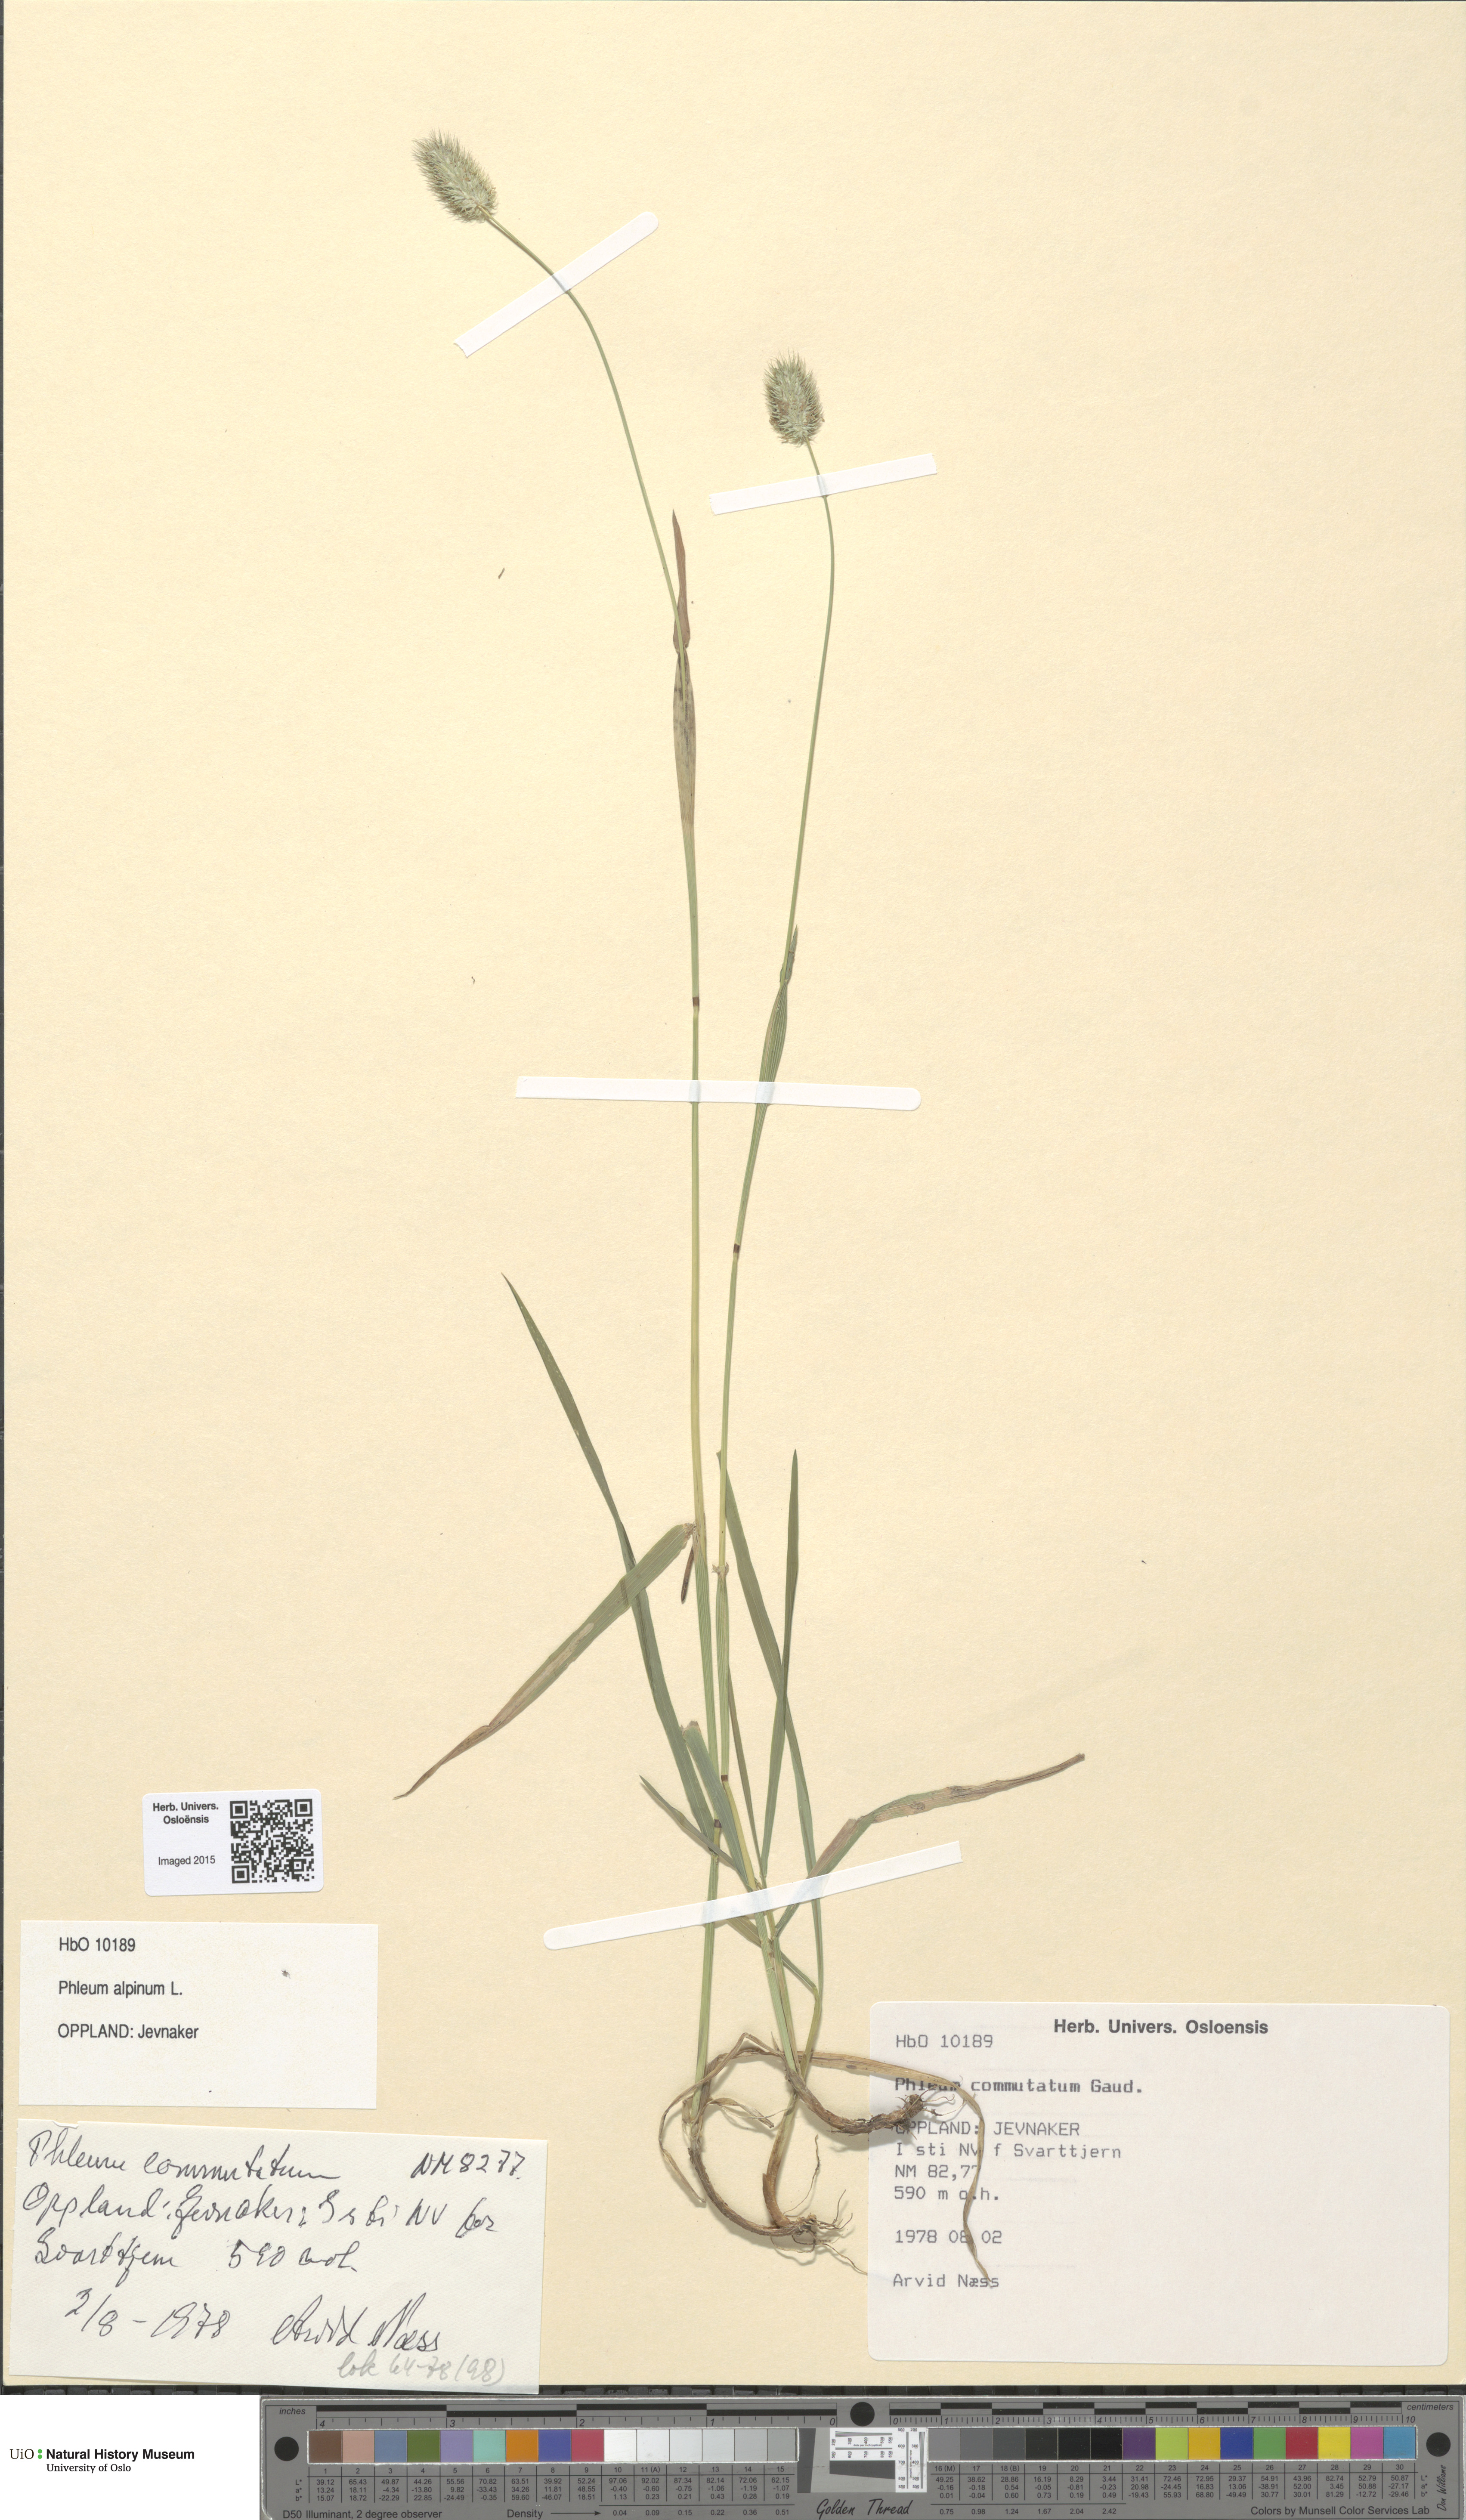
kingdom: Plantae
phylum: Tracheophyta
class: Liliopsida
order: Poales
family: Poaceae
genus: Phleum
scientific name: Phleum alpinum
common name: Alpine cat's-tail
